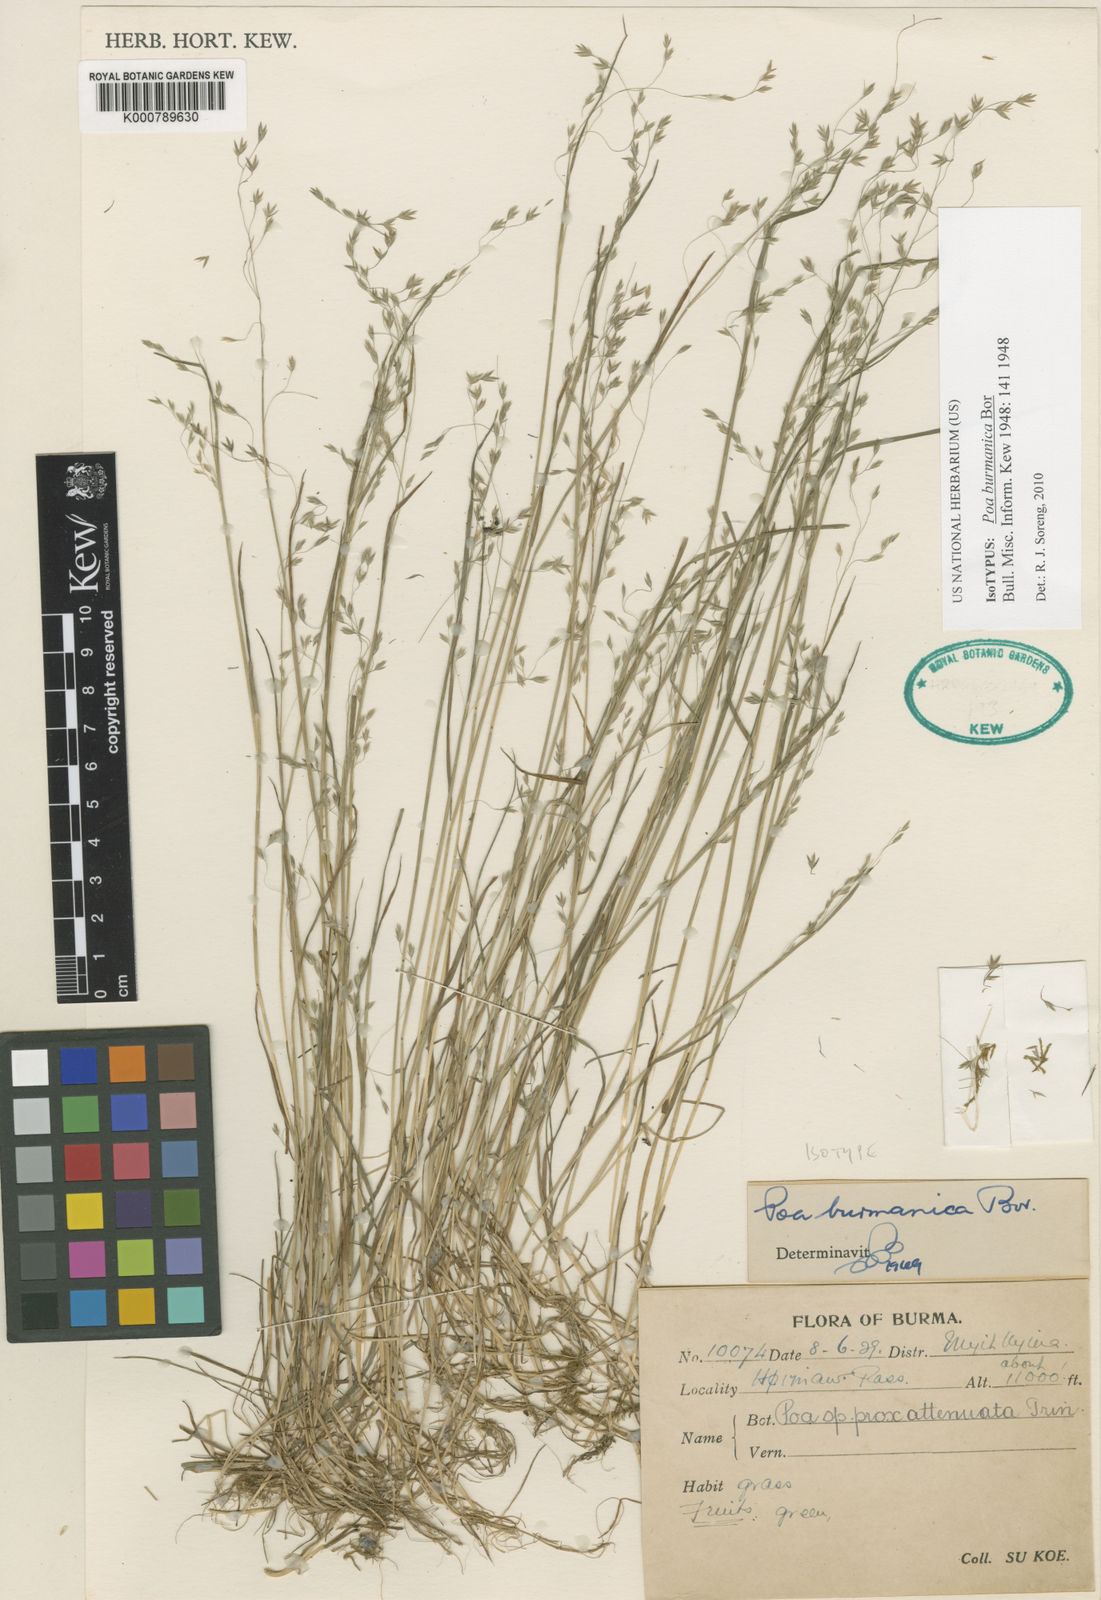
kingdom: Plantae
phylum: Tracheophyta
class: Liliopsida
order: Poales
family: Poaceae
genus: Poa
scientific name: Poa burmanica
